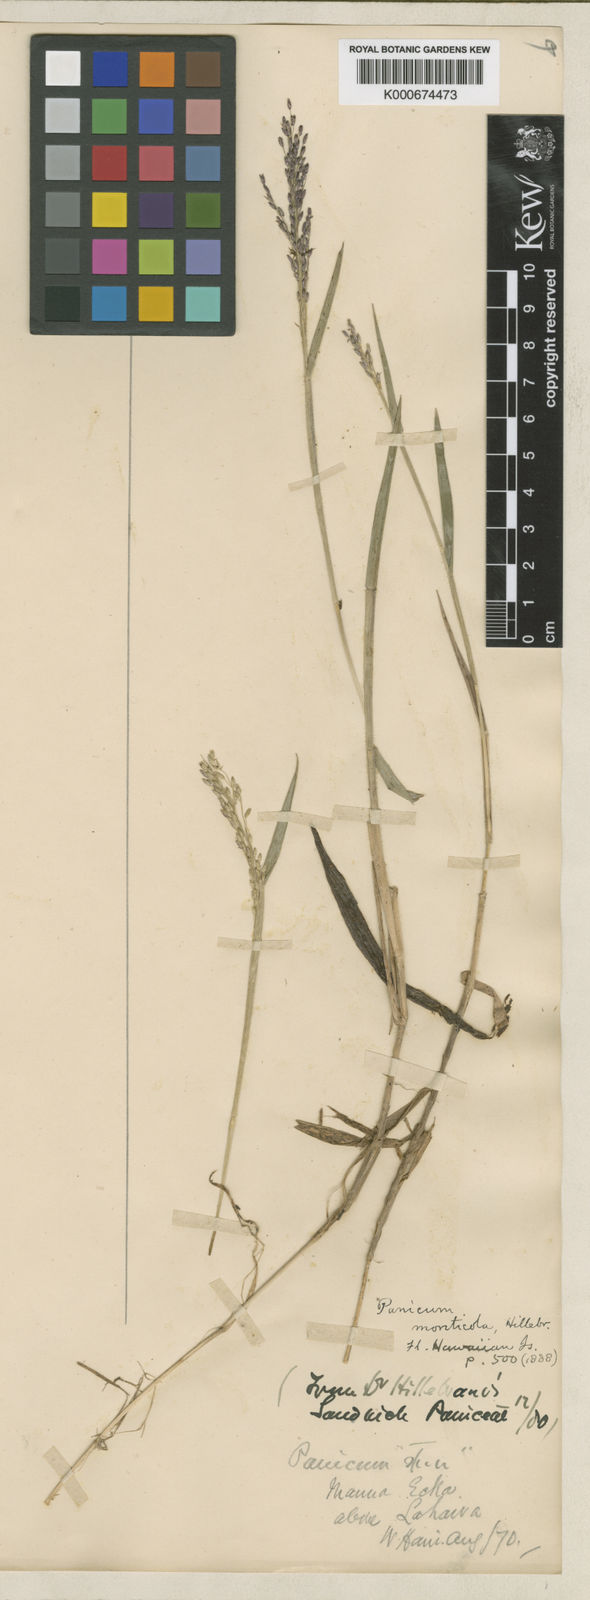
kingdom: Plantae
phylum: Tracheophyta
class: Liliopsida
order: Poales
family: Poaceae
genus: Dichanthelium
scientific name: Dichanthelium hillebrandianum
